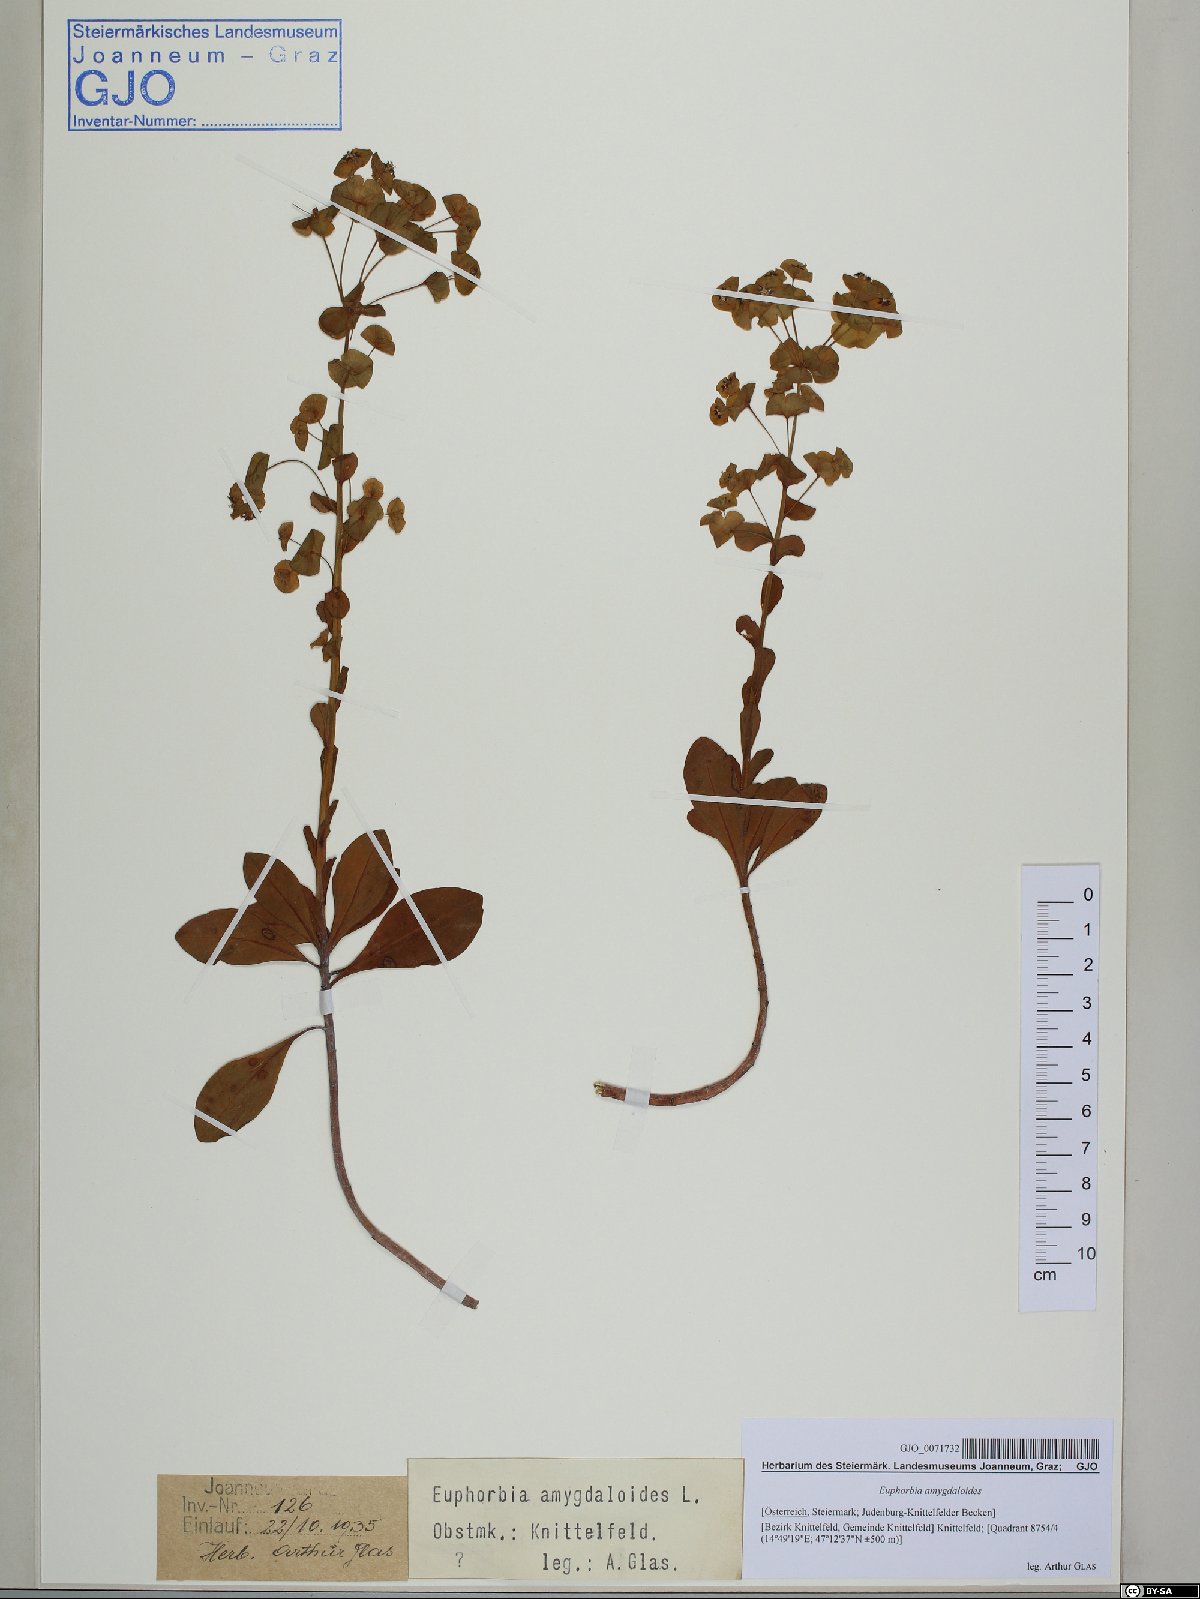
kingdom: Plantae
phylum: Tracheophyta
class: Magnoliopsida
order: Malpighiales
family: Euphorbiaceae
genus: Euphorbia
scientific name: Euphorbia amygdaloides
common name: Wood spurge
